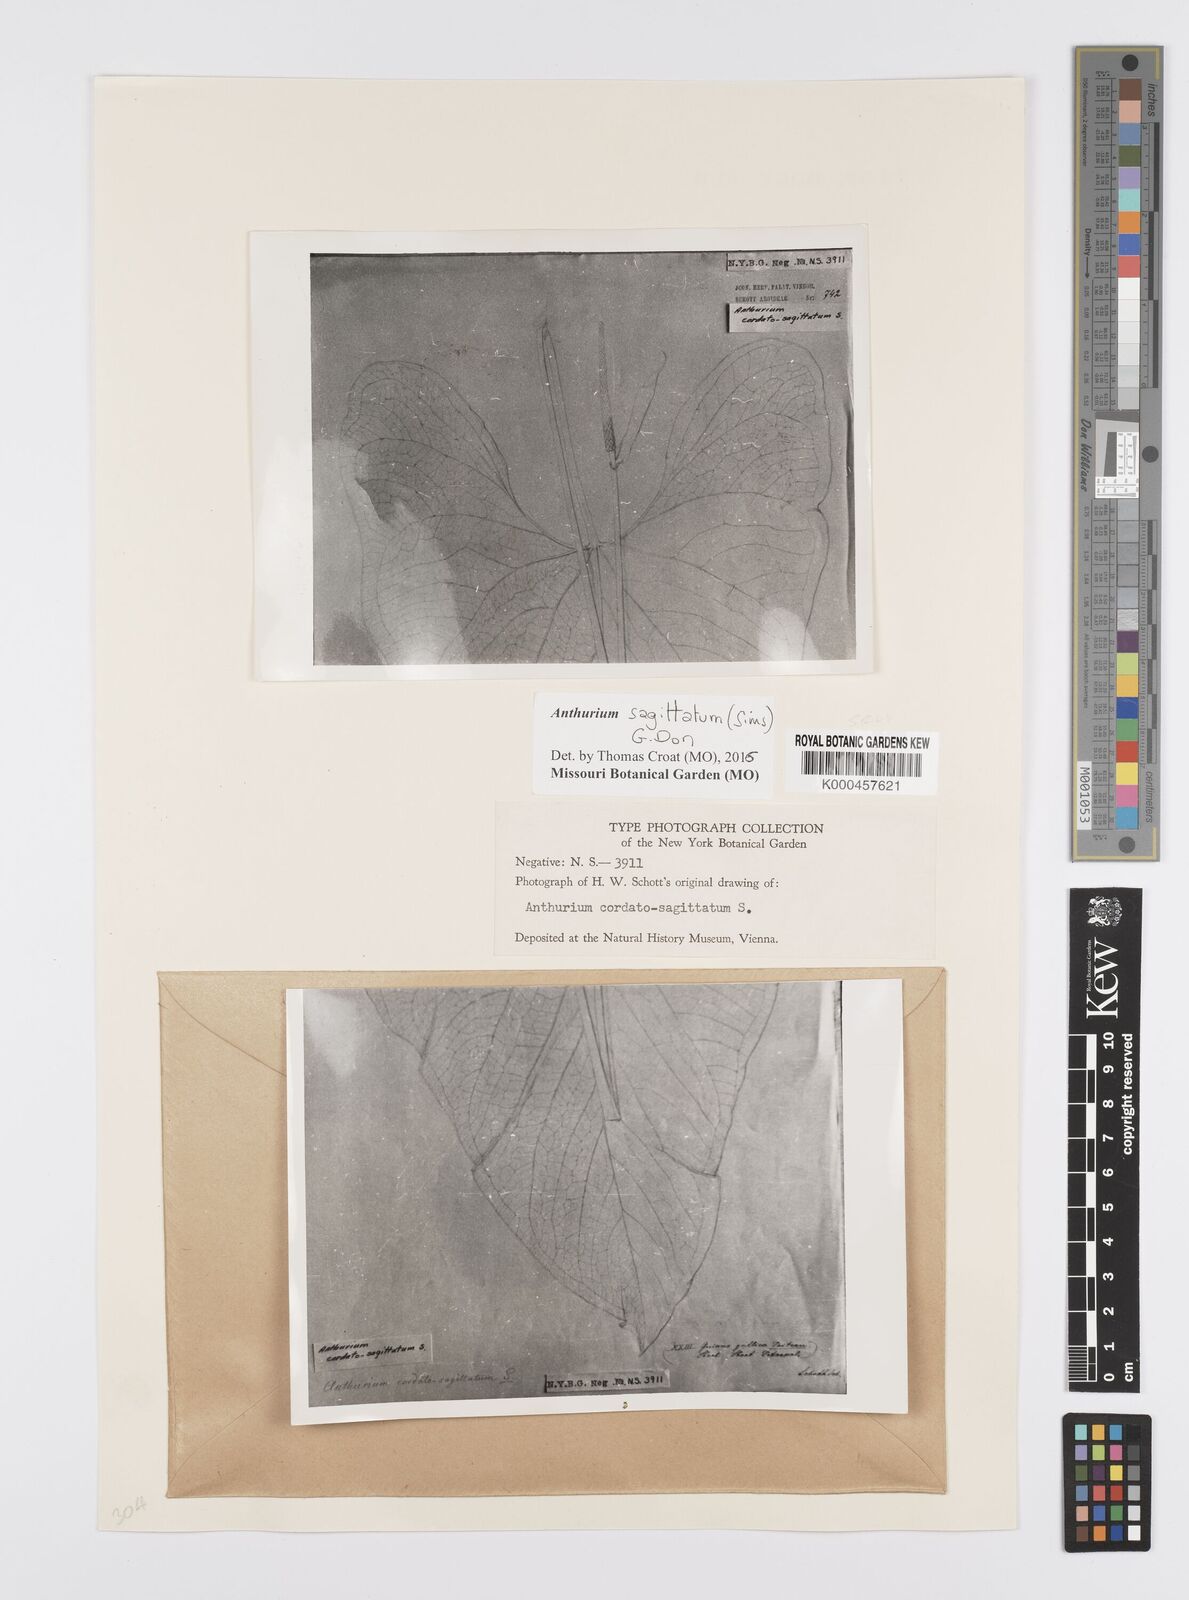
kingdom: Plantae
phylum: Tracheophyta
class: Liliopsida
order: Alismatales
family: Araceae
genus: Anthurium
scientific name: Anthurium sagittatum
